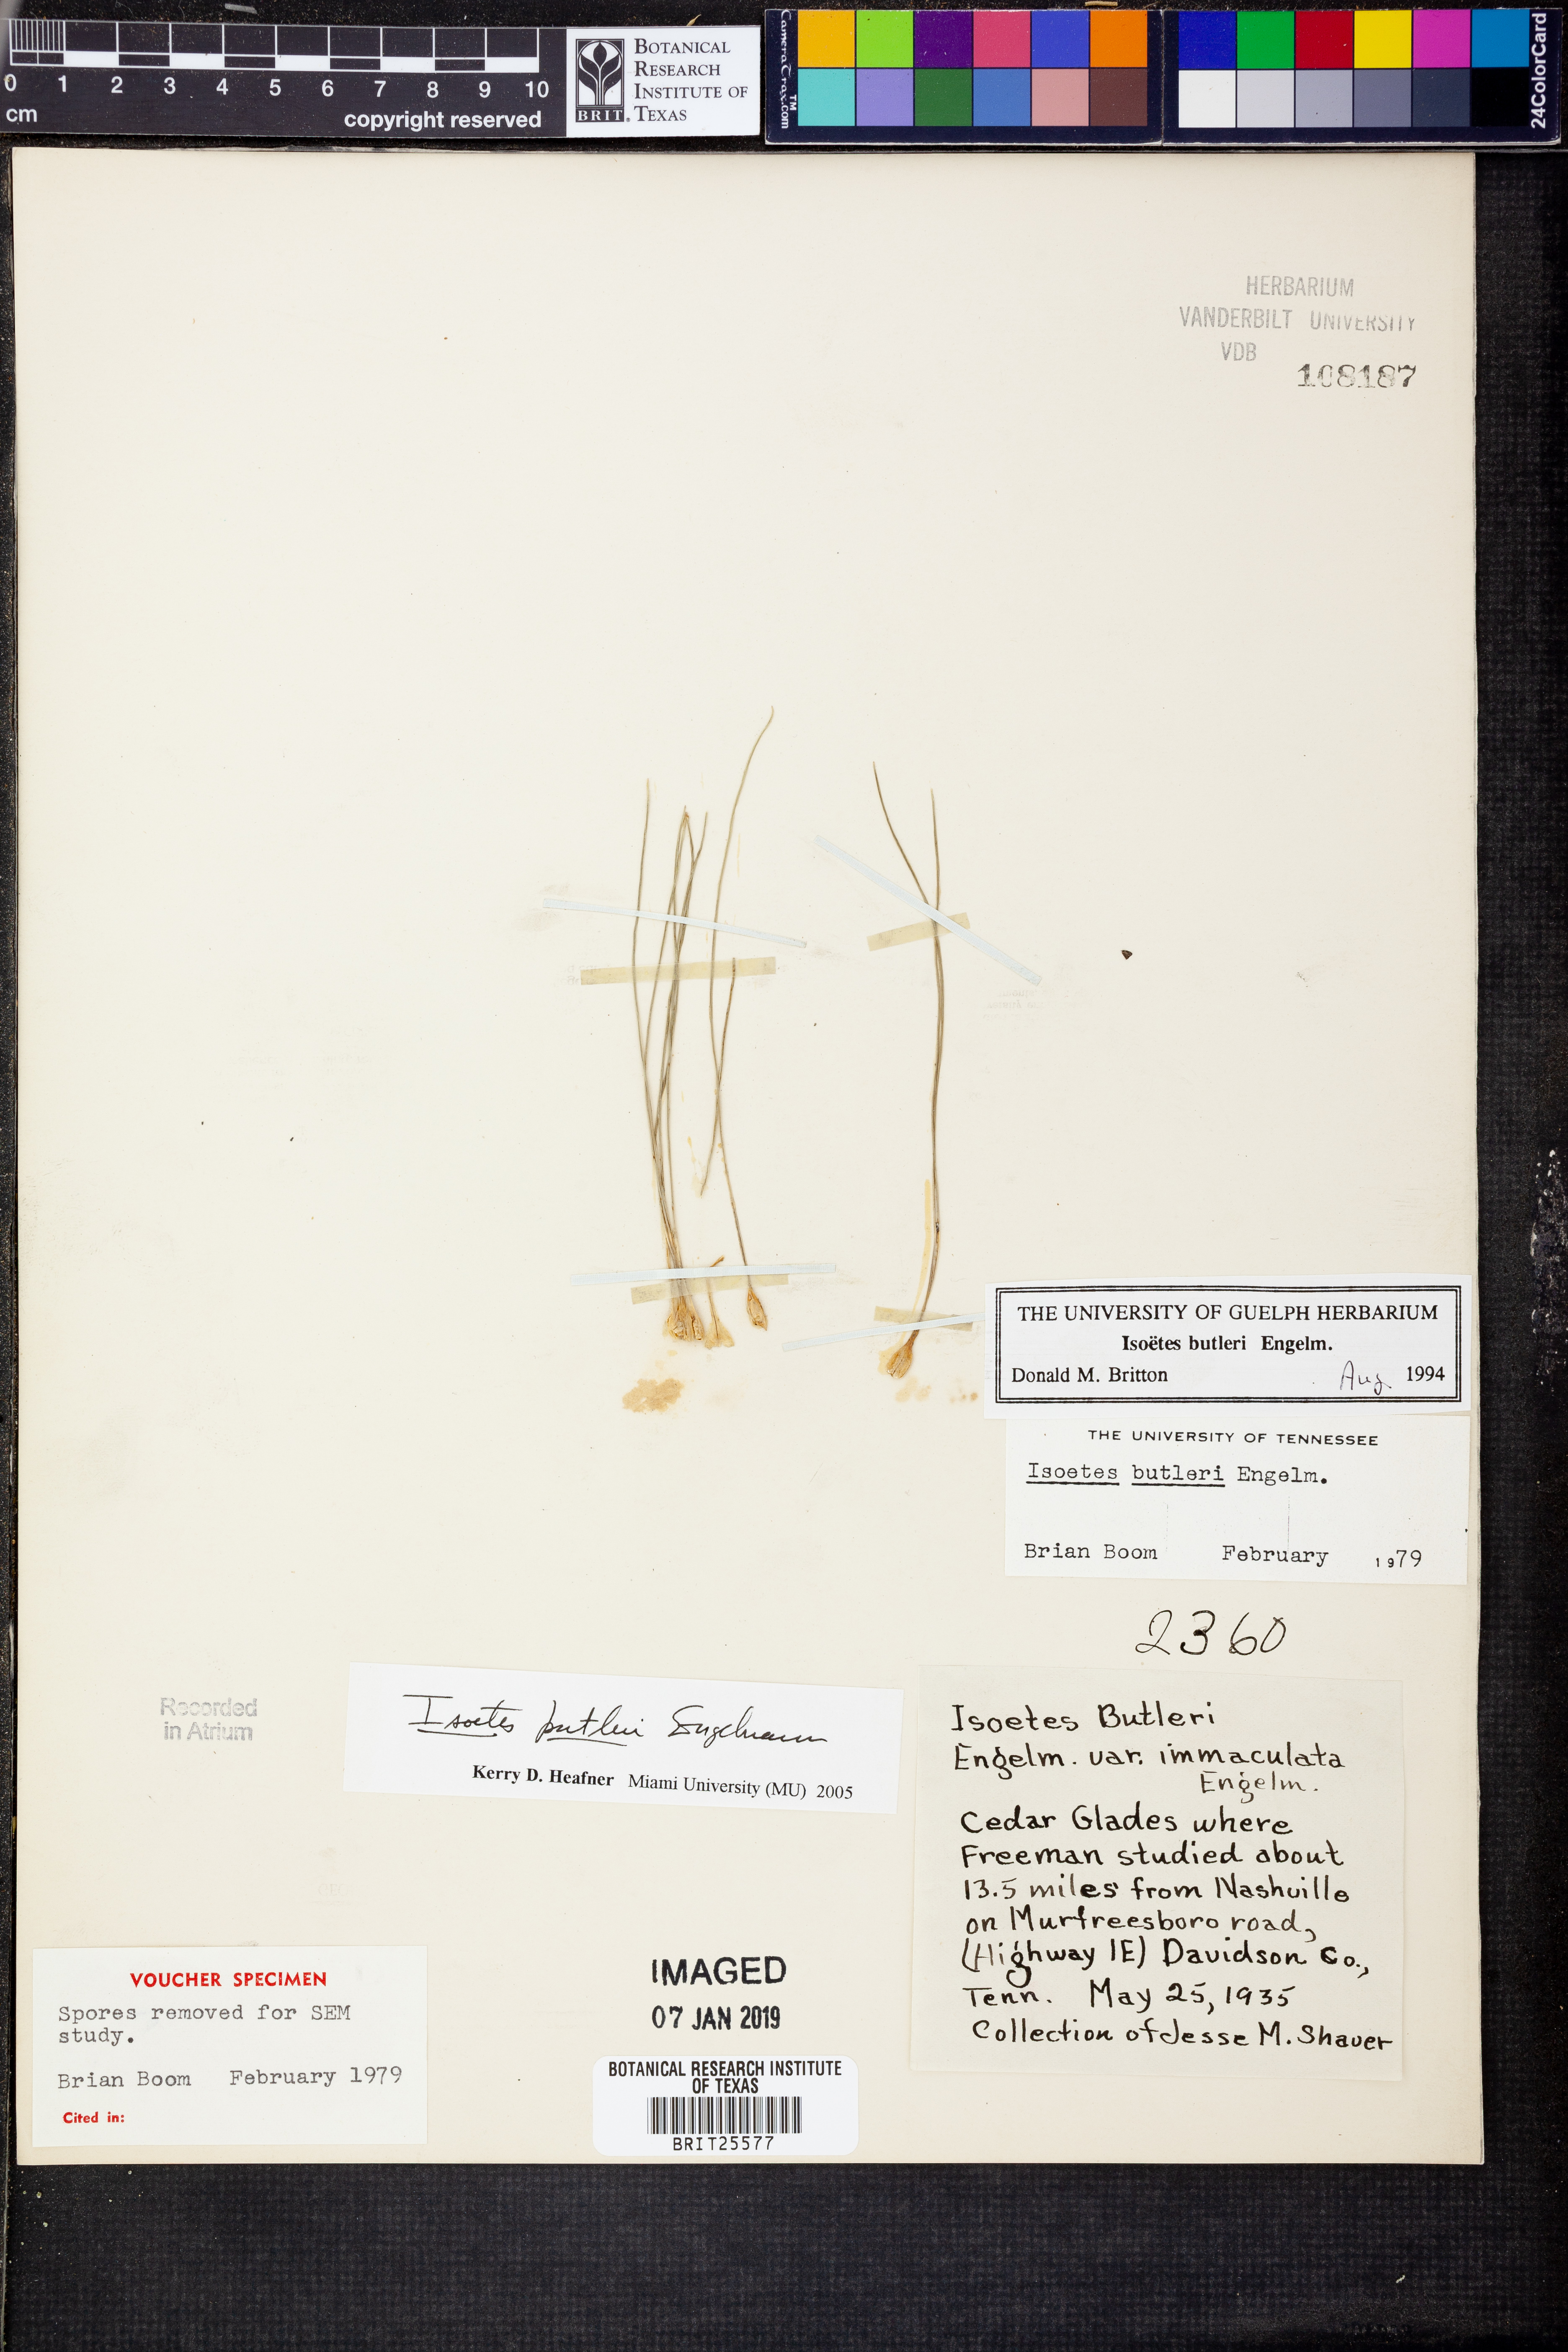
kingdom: Plantae
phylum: Tracheophyta
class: Lycopodiopsida
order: Isoetales
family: Isoetaceae
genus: Isoetes
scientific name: Isoetes butleri
